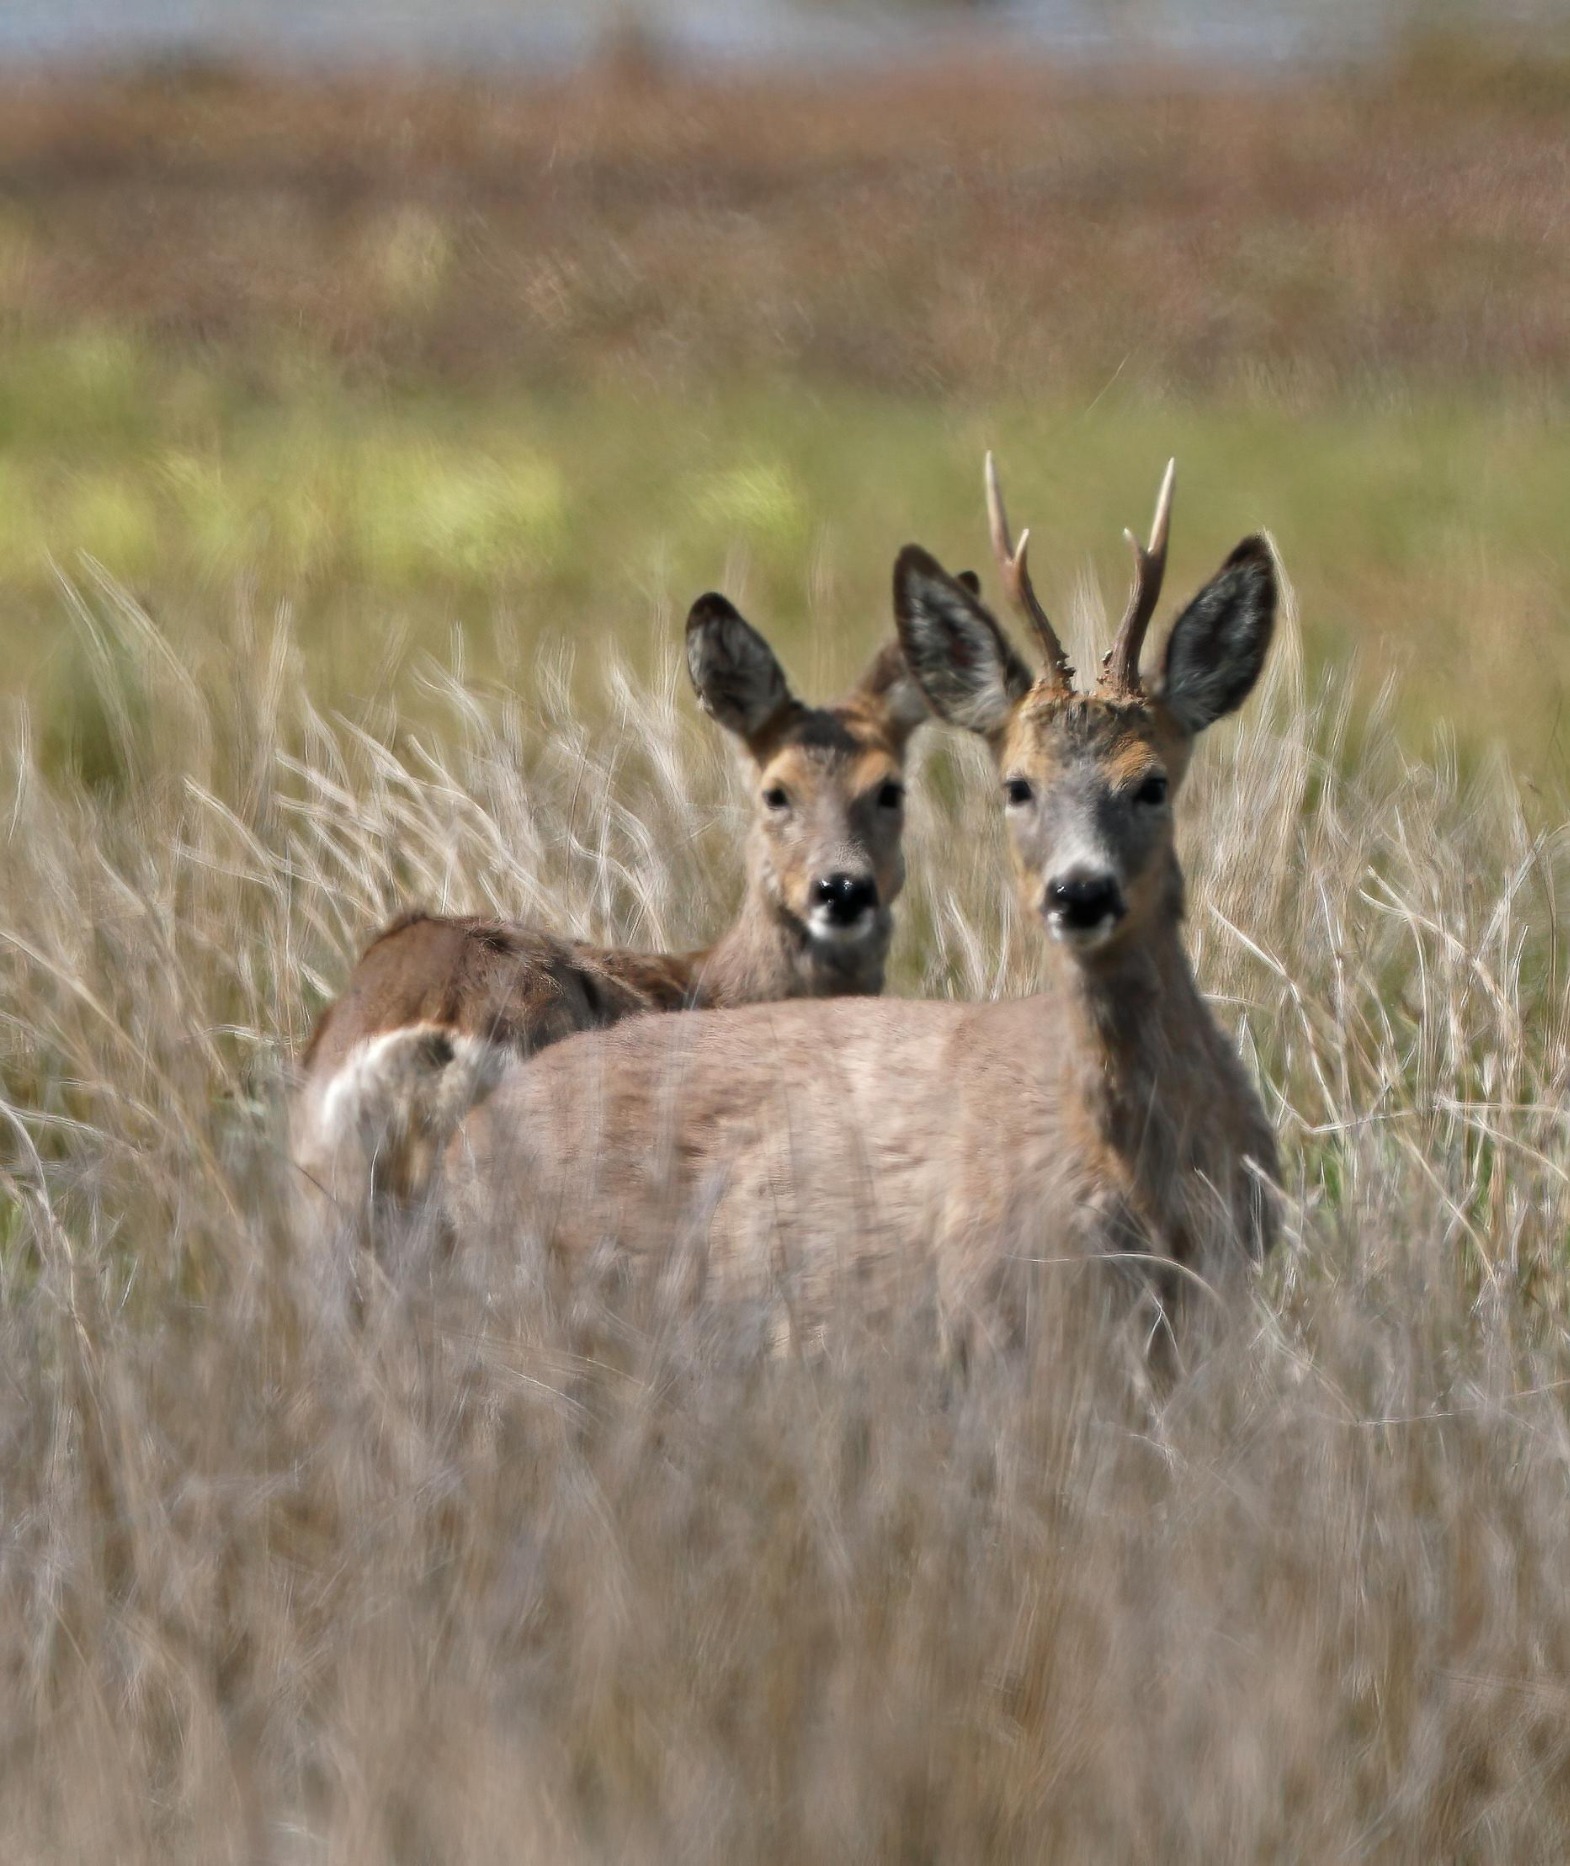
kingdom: Animalia
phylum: Chordata
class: Mammalia
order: Artiodactyla
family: Cervidae
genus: Capreolus
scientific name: Capreolus capreolus
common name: Rådyr
